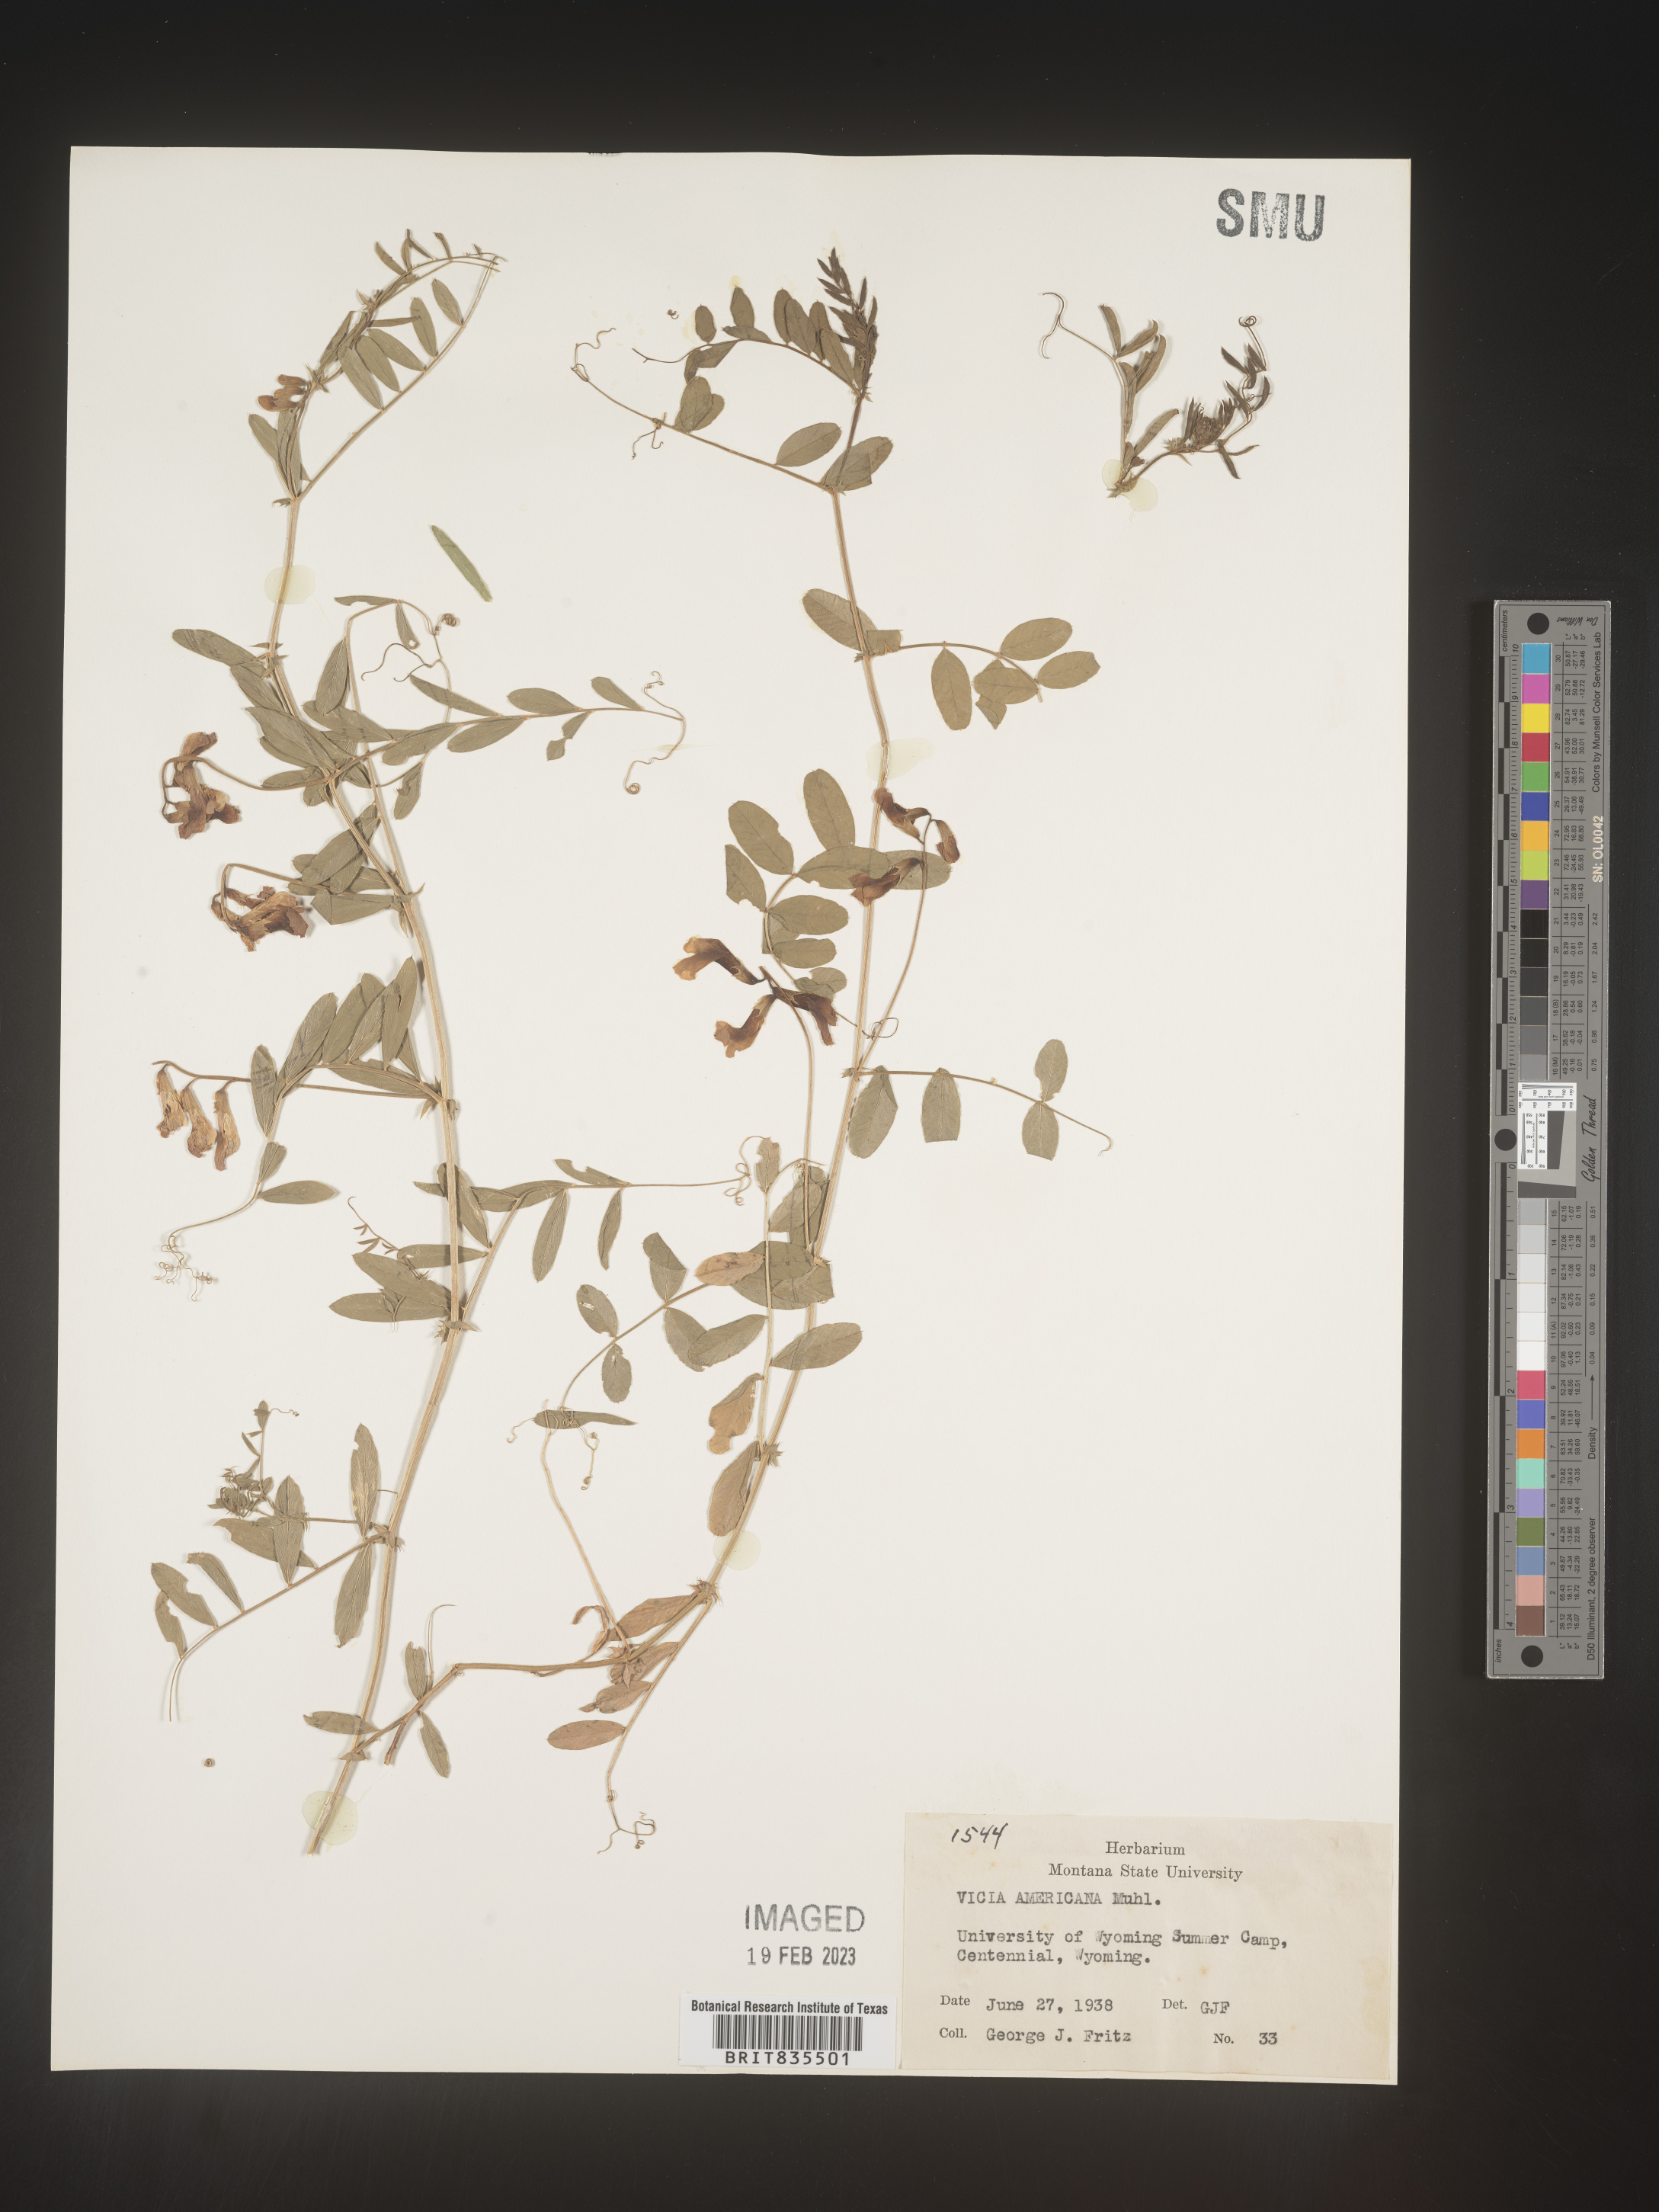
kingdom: Plantae
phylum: Tracheophyta
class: Magnoliopsida
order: Fabales
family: Fabaceae
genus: Vicia
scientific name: Vicia americana
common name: American vetch
